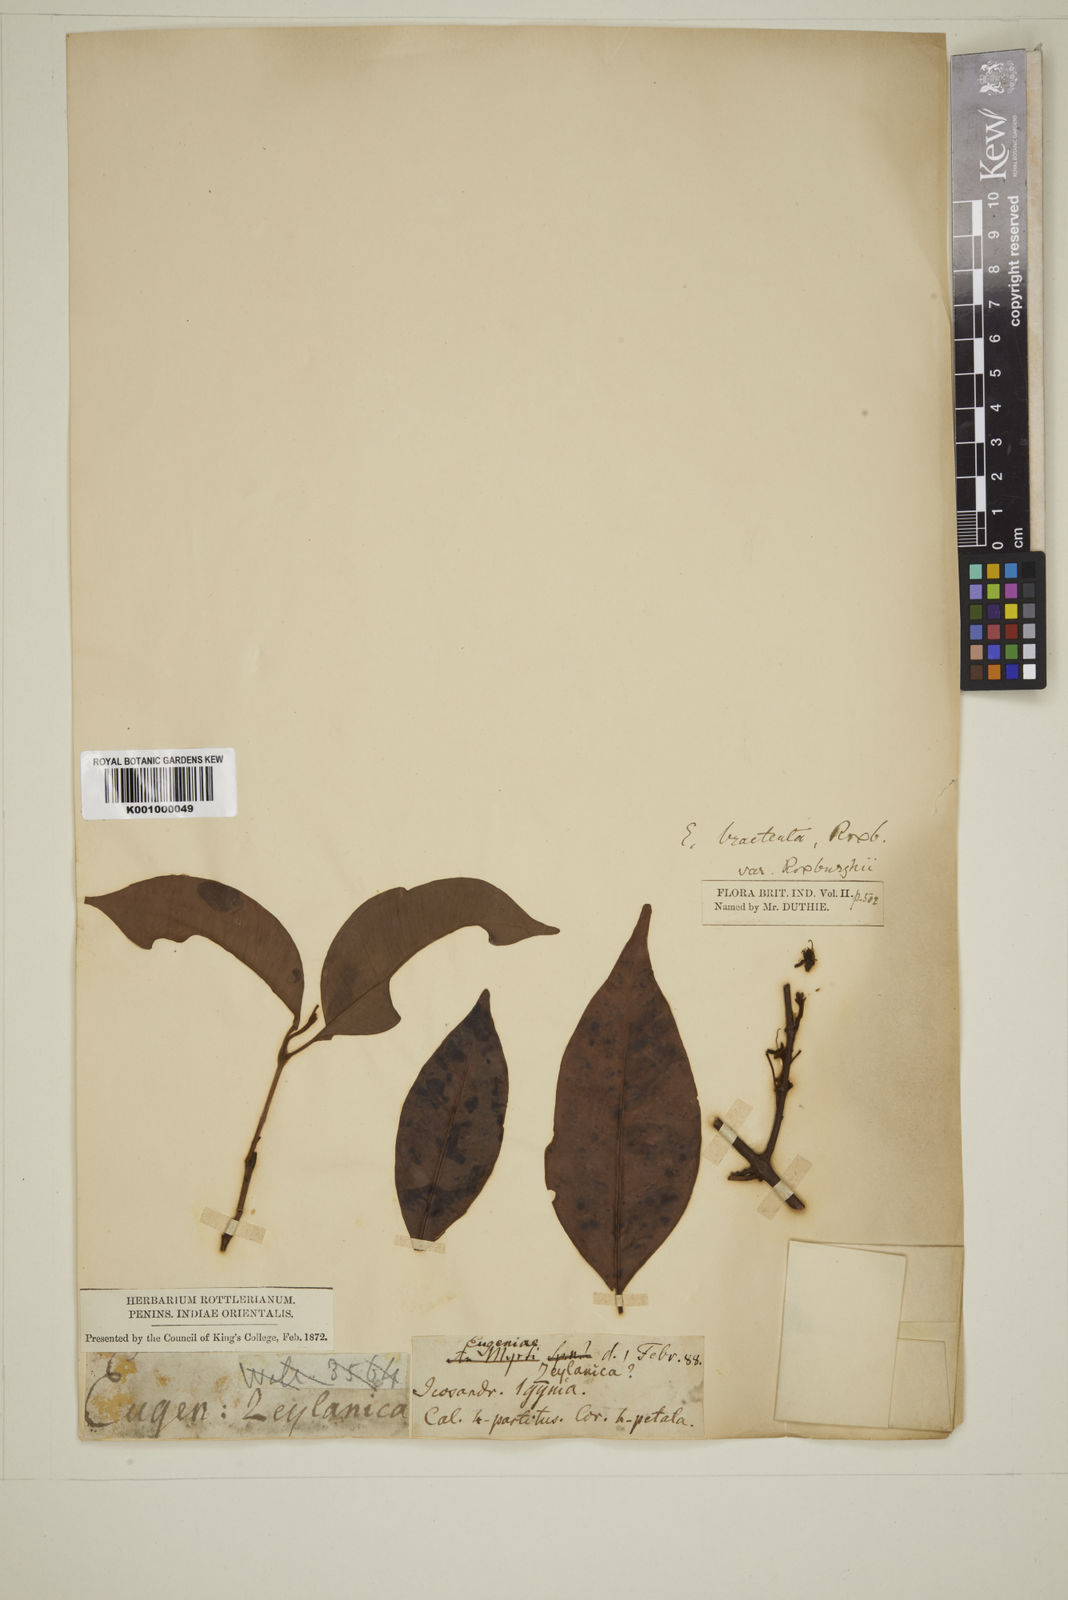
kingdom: Plantae
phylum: Tracheophyta
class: Magnoliopsida
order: Myrtales
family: Myrtaceae
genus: Eugenia
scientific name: Eugenia roxburghii
